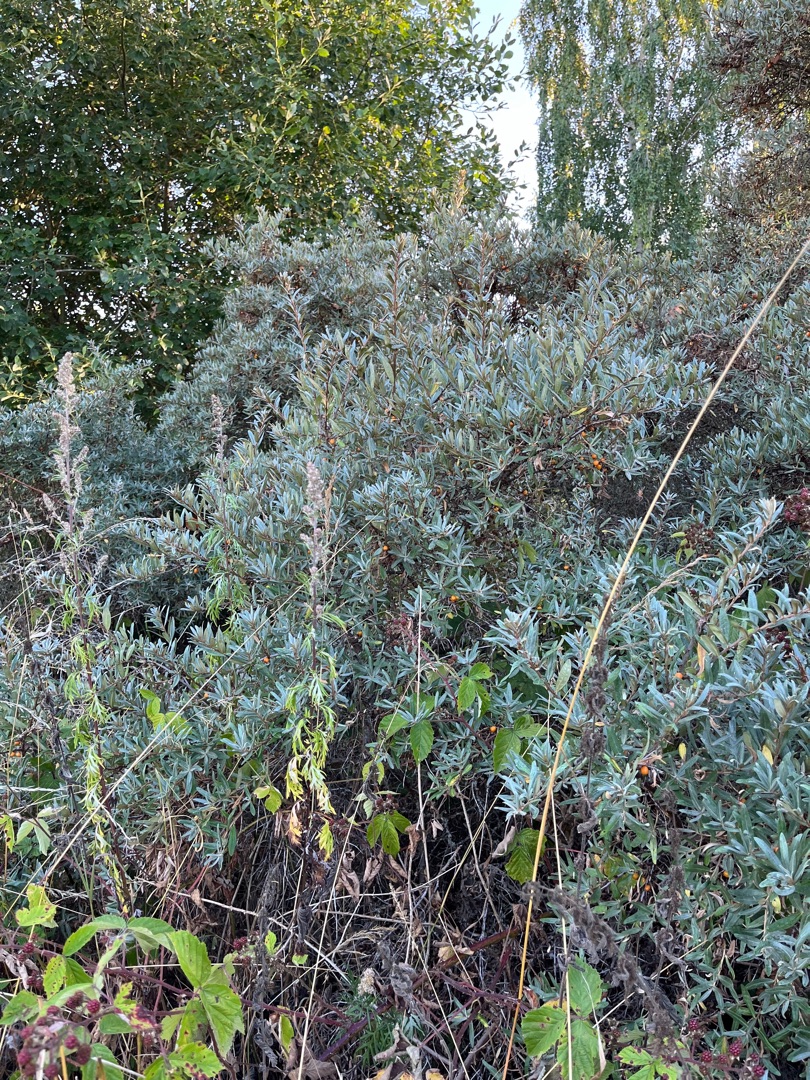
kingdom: Plantae
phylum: Tracheophyta
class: Magnoliopsida
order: Rosales
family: Elaeagnaceae
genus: Hippophae
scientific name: Hippophae rhamnoides
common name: Havtorn
